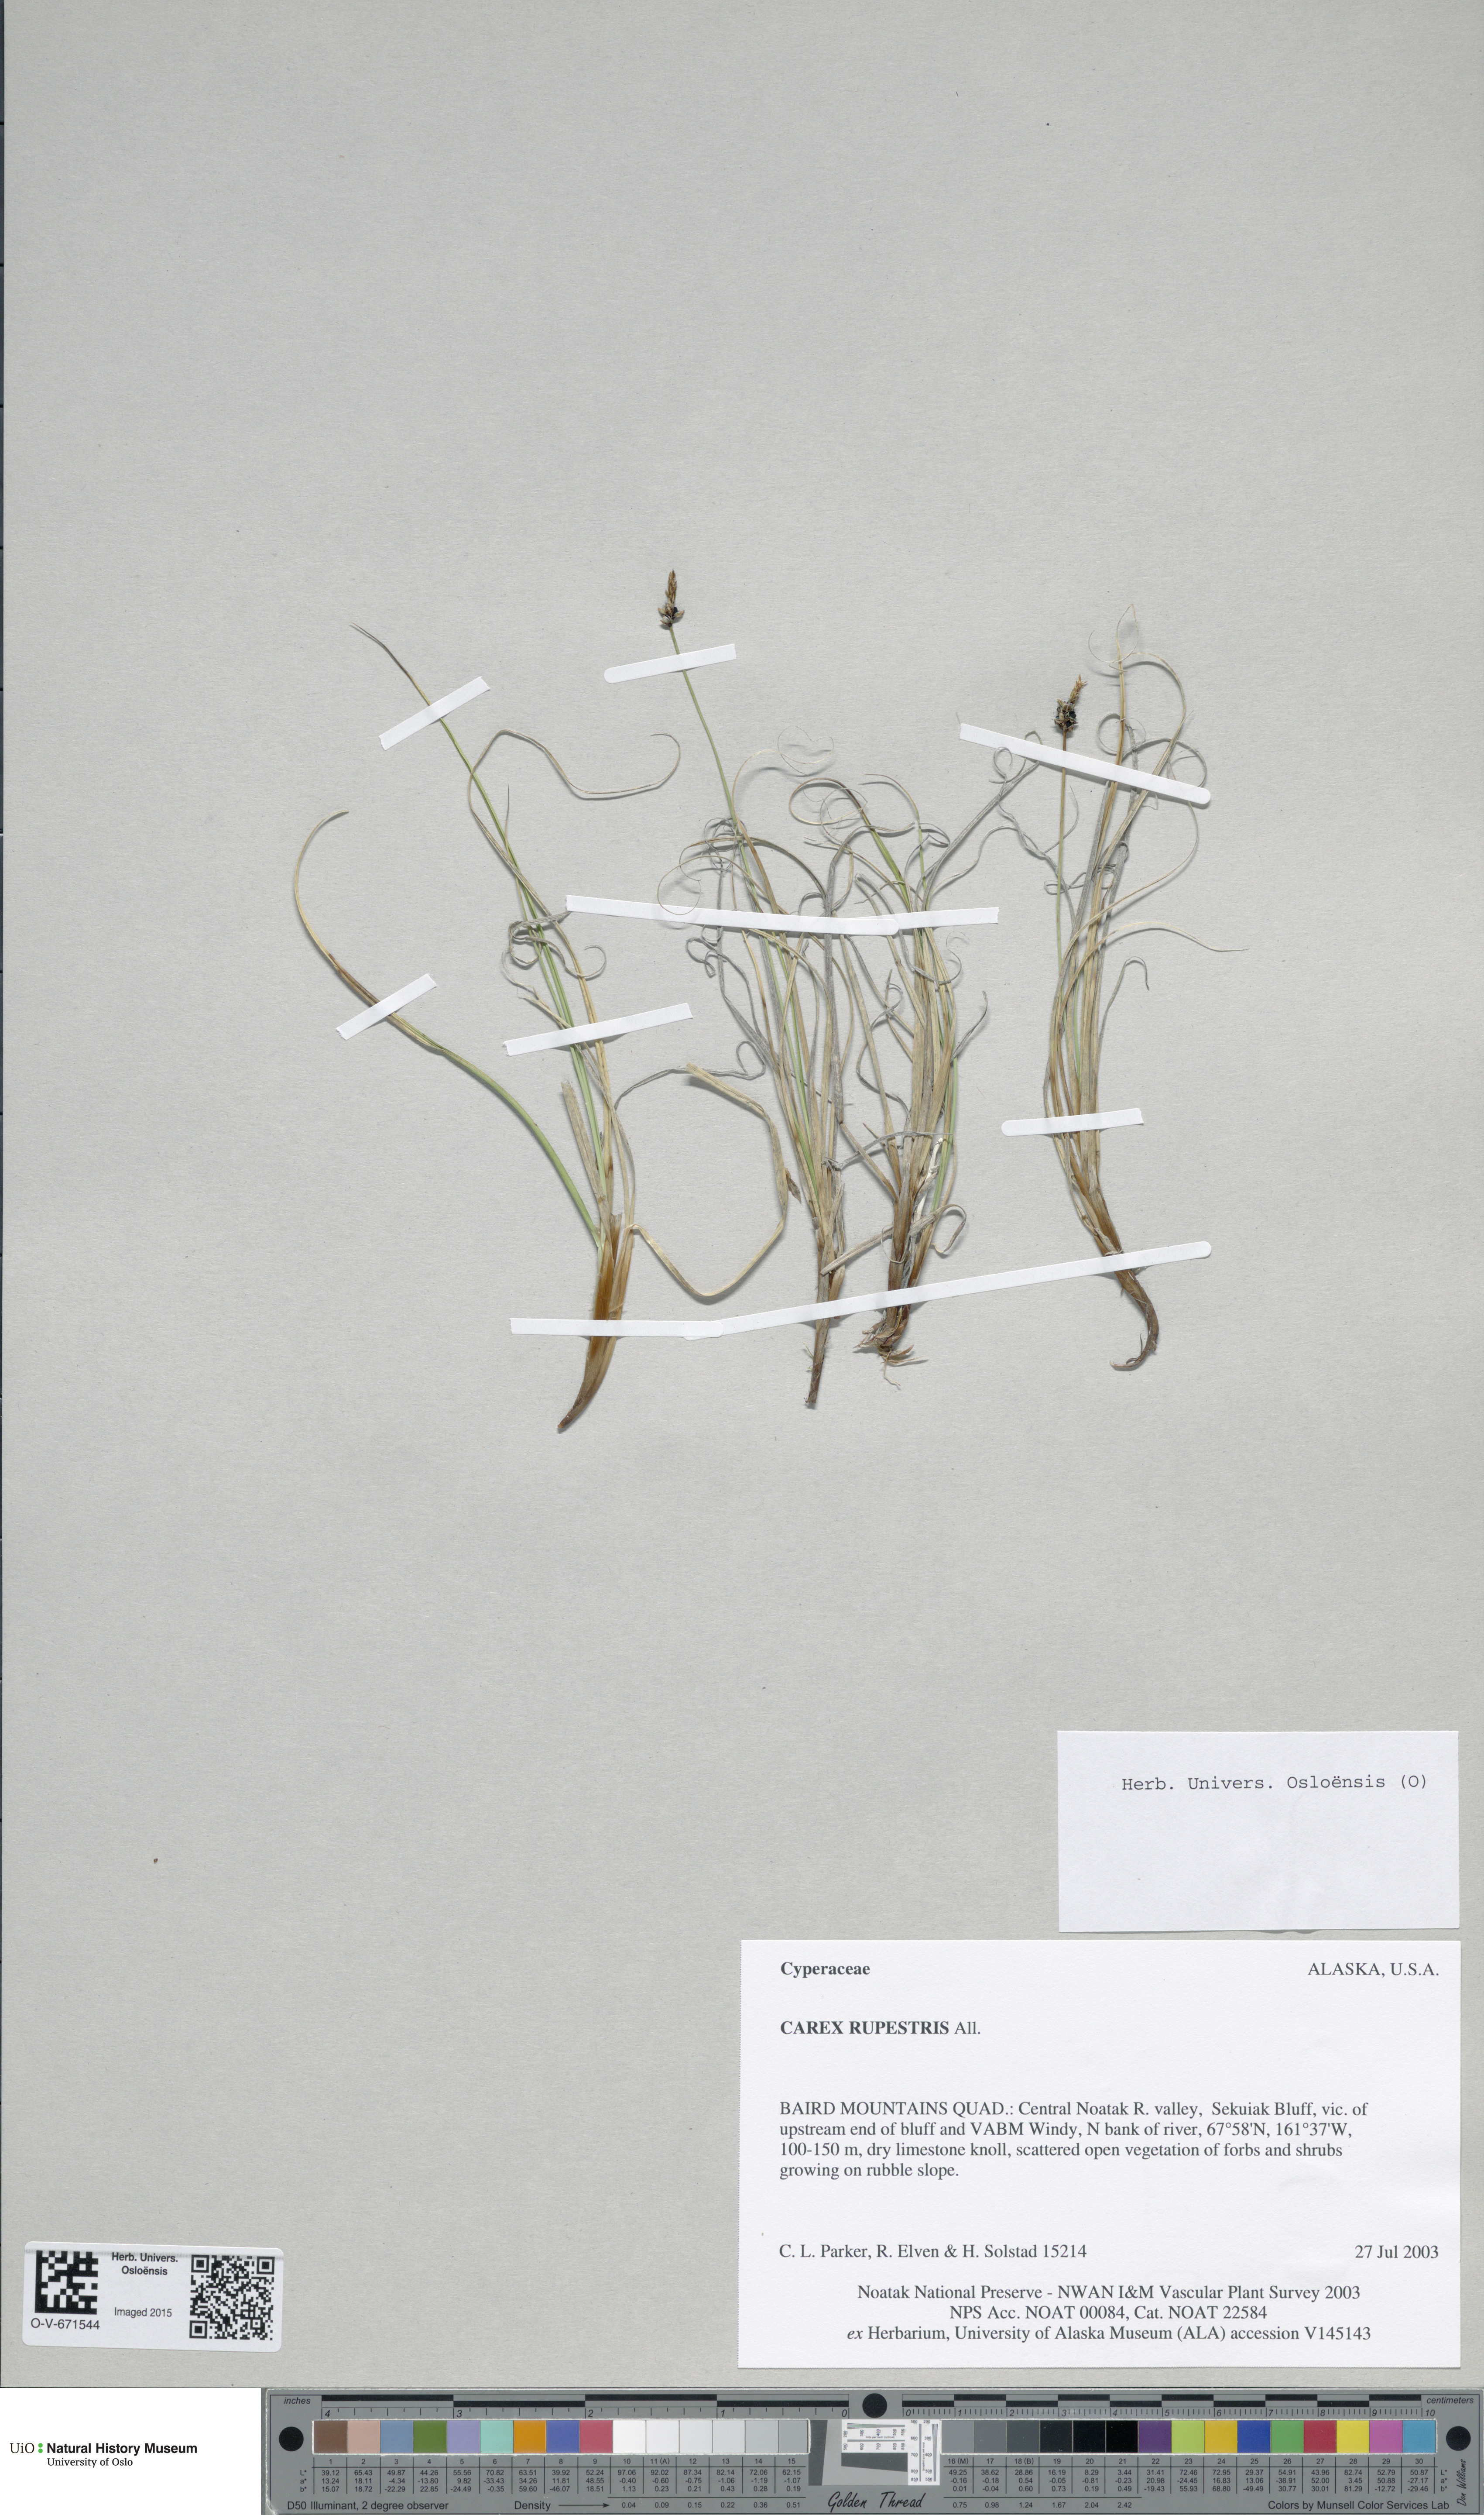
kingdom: Plantae
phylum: Tracheophyta
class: Liliopsida
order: Poales
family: Cyperaceae
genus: Carex
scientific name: Carex rupestris
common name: Rock sedge
